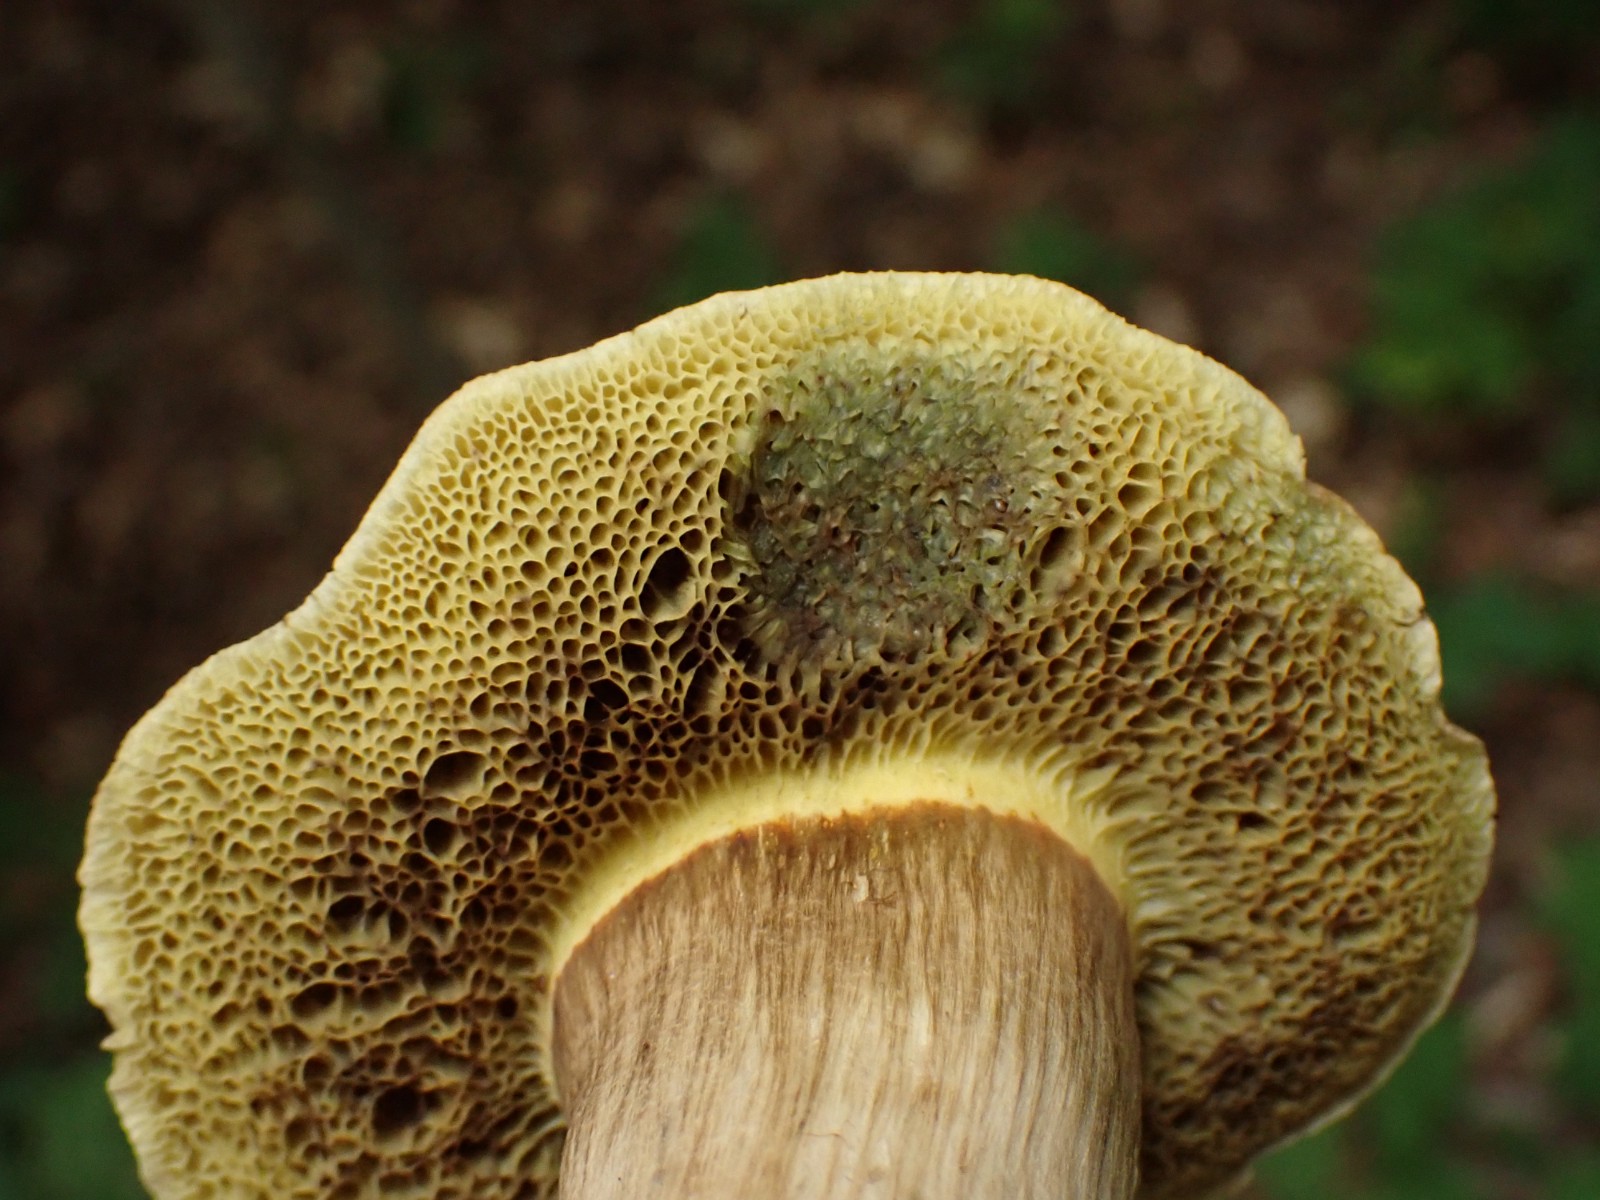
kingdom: Fungi
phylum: Basidiomycota
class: Agaricomycetes
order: Boletales
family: Boletaceae
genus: Xerocomellus
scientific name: Xerocomellus porosporus
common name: hvidsprukken rørhat
